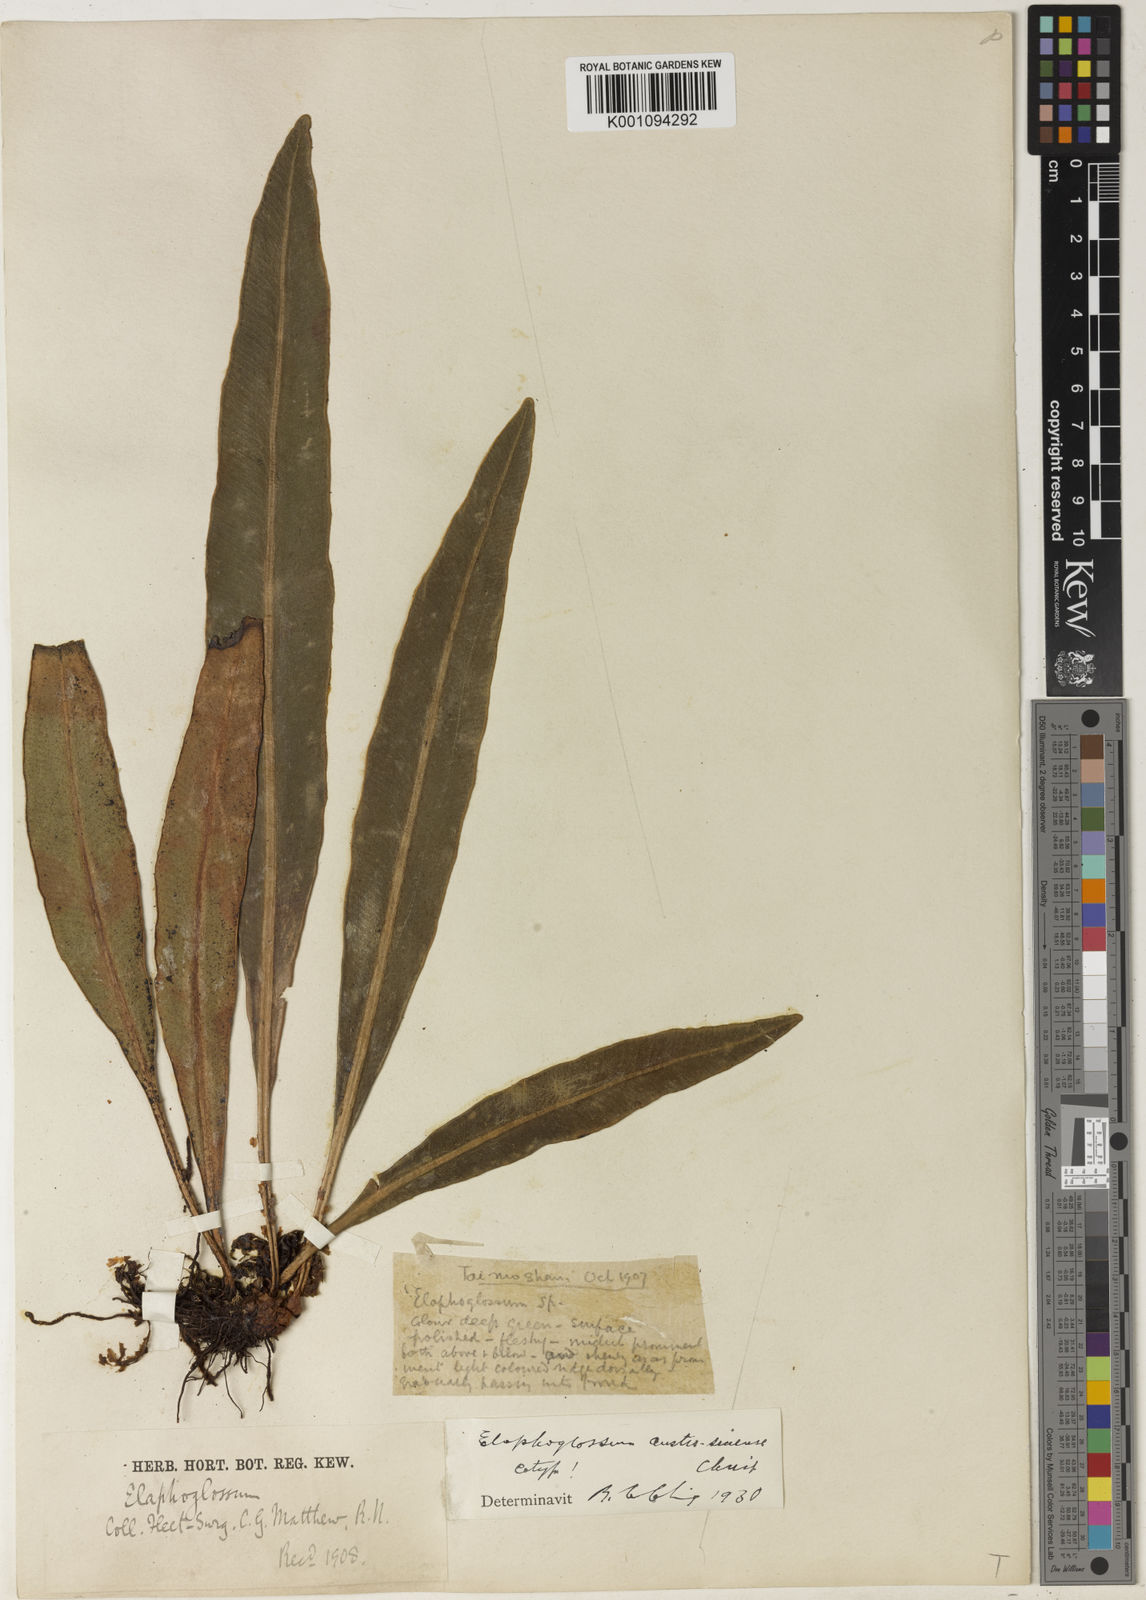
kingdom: Plantae
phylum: Tracheophyta
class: Polypodiopsida
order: Polypodiales
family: Dryopteridaceae
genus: Elaphoglossum
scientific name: Elaphoglossum yoshinagae
